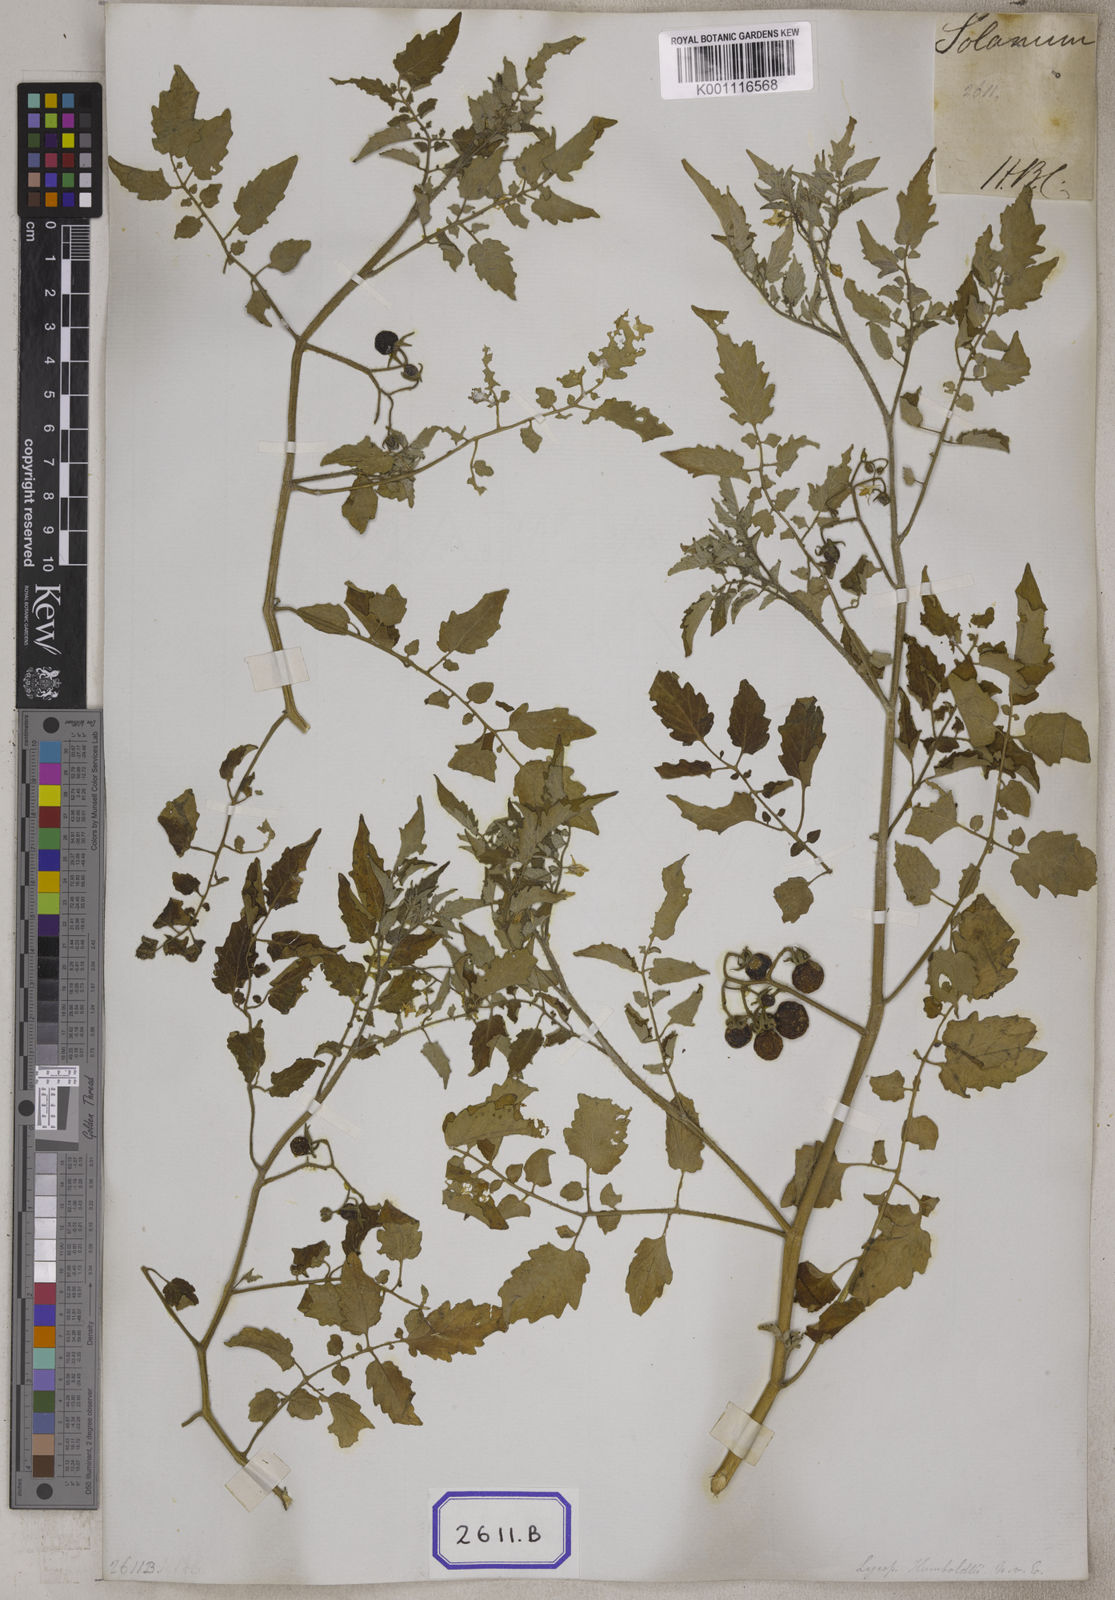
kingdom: Plantae
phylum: Tracheophyta
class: Magnoliopsida
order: Solanales
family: Solanaceae
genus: Solanum
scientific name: Solanum lycopersicum
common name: Garden tomato
